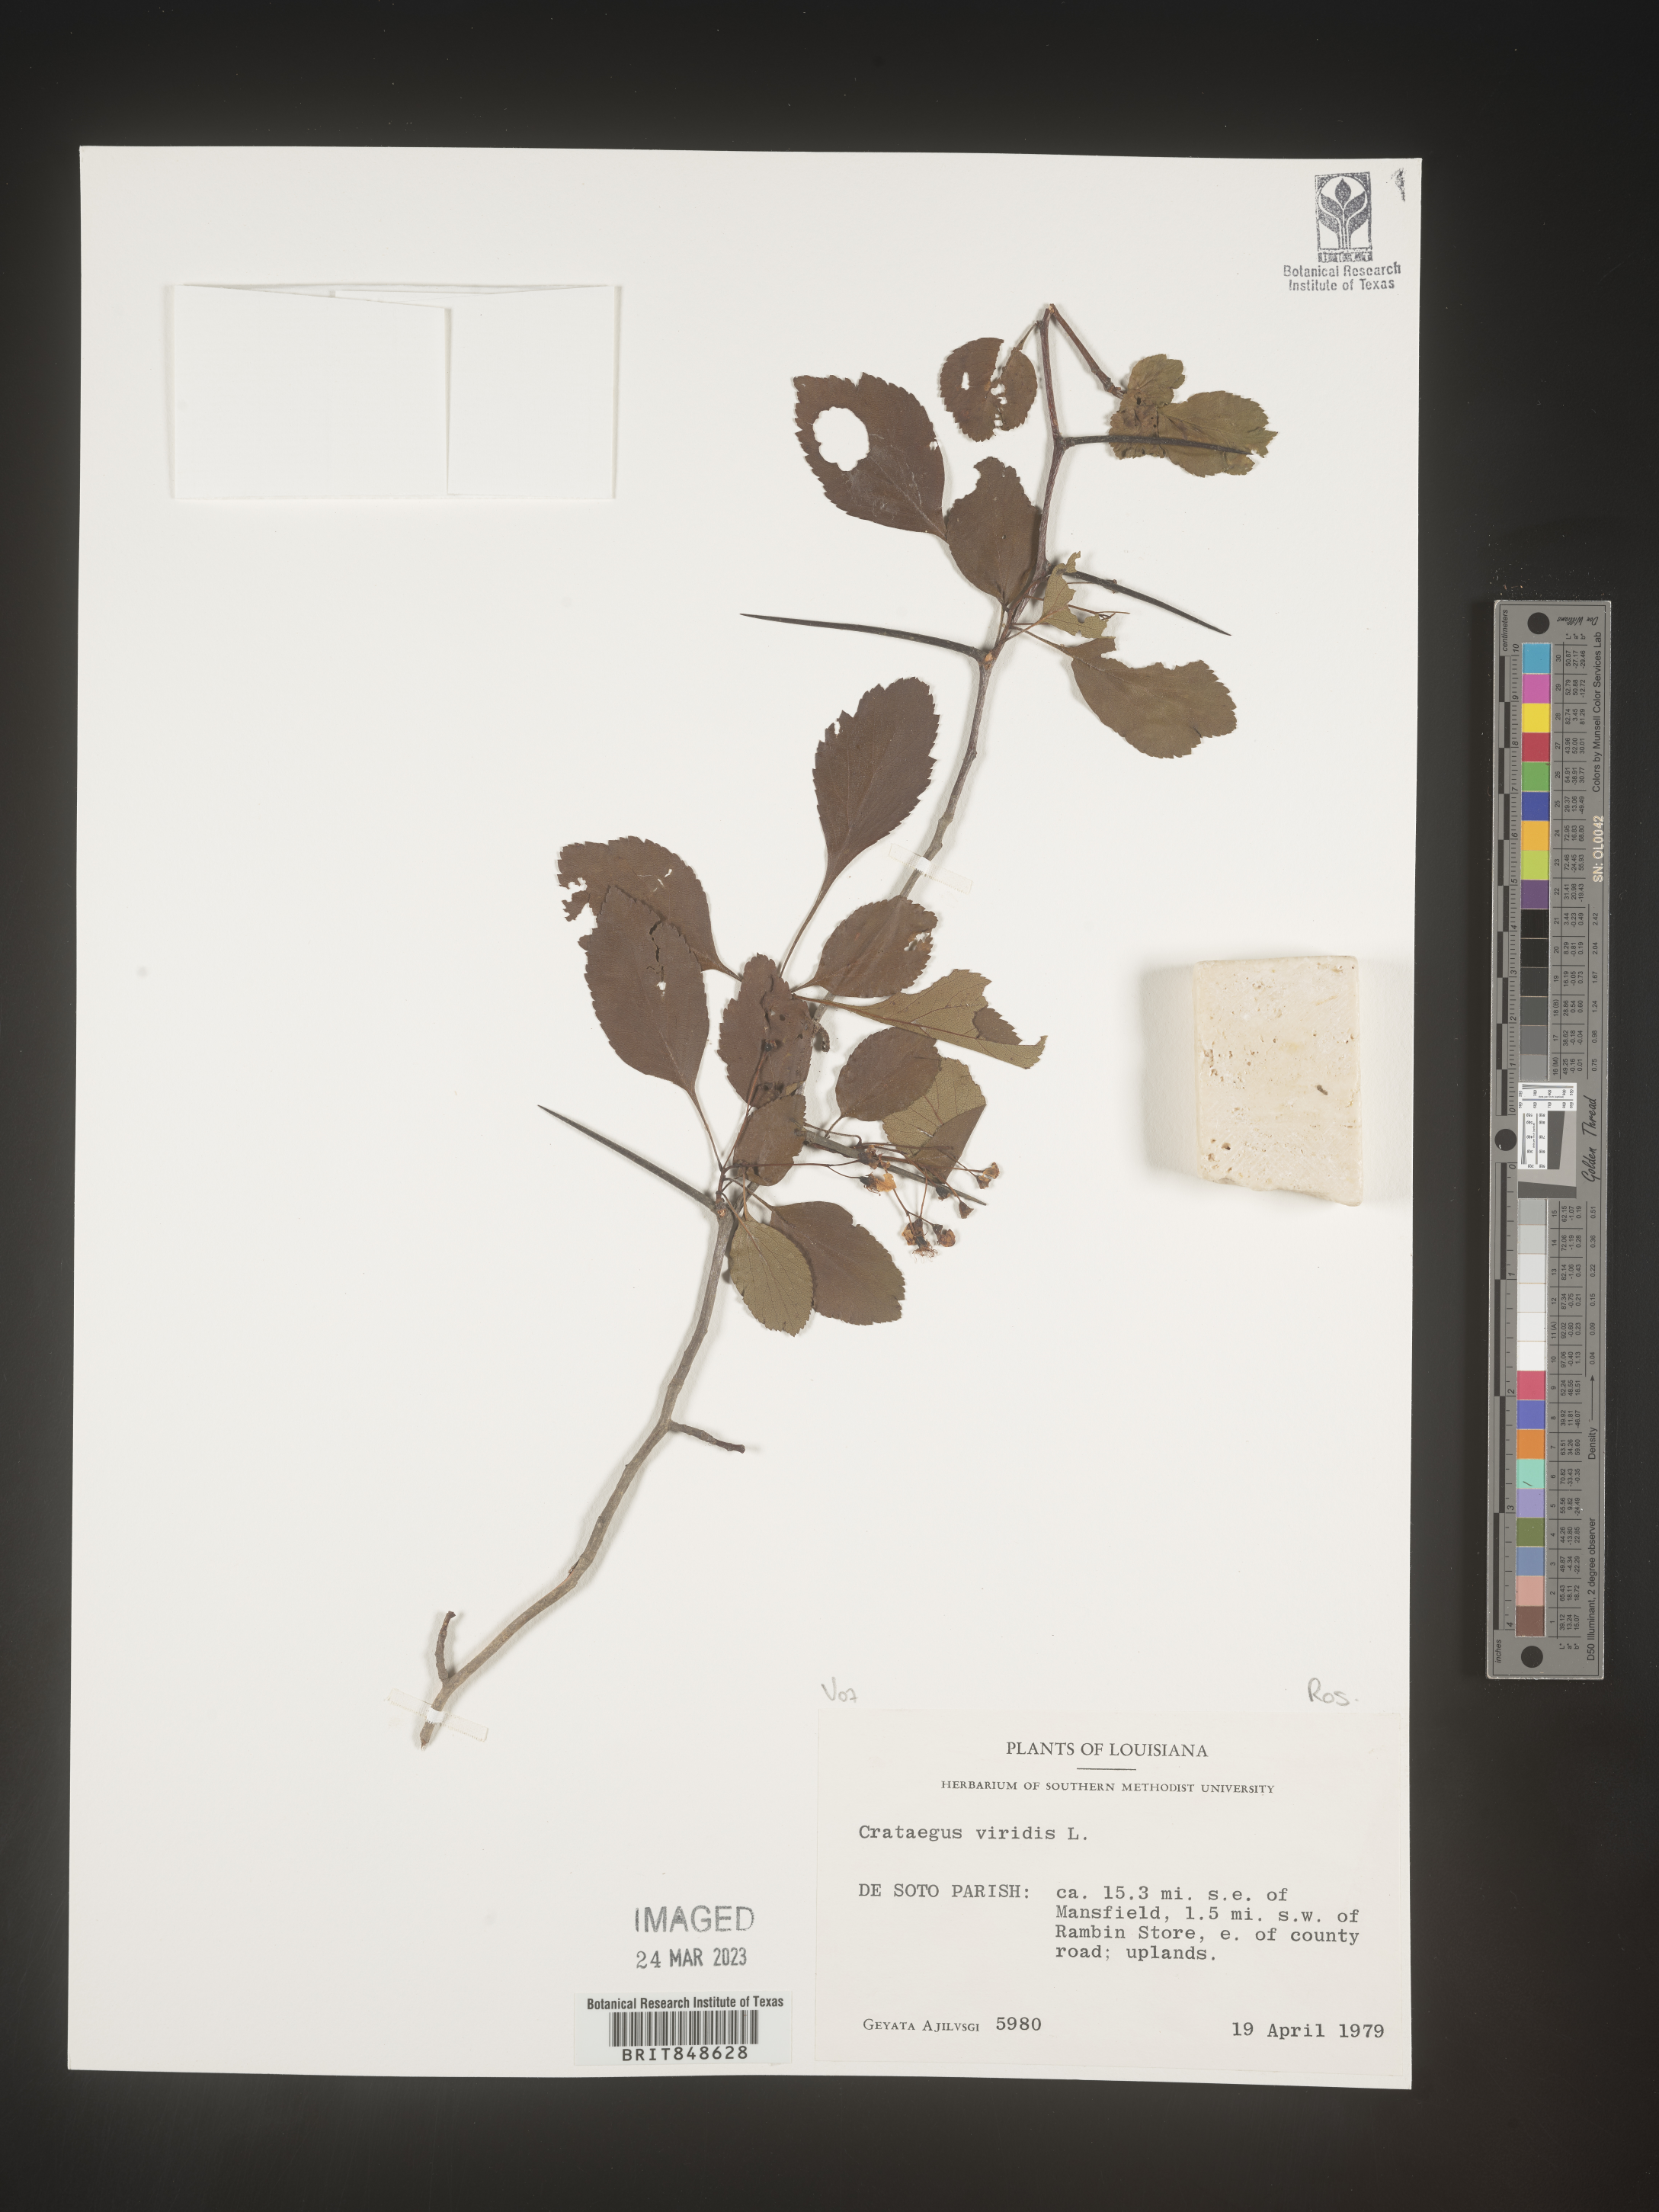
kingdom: Plantae
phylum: Tracheophyta
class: Magnoliopsida
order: Rosales
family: Rosaceae
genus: Crataegus
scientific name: Crataegus viridis
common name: Southernthorn
